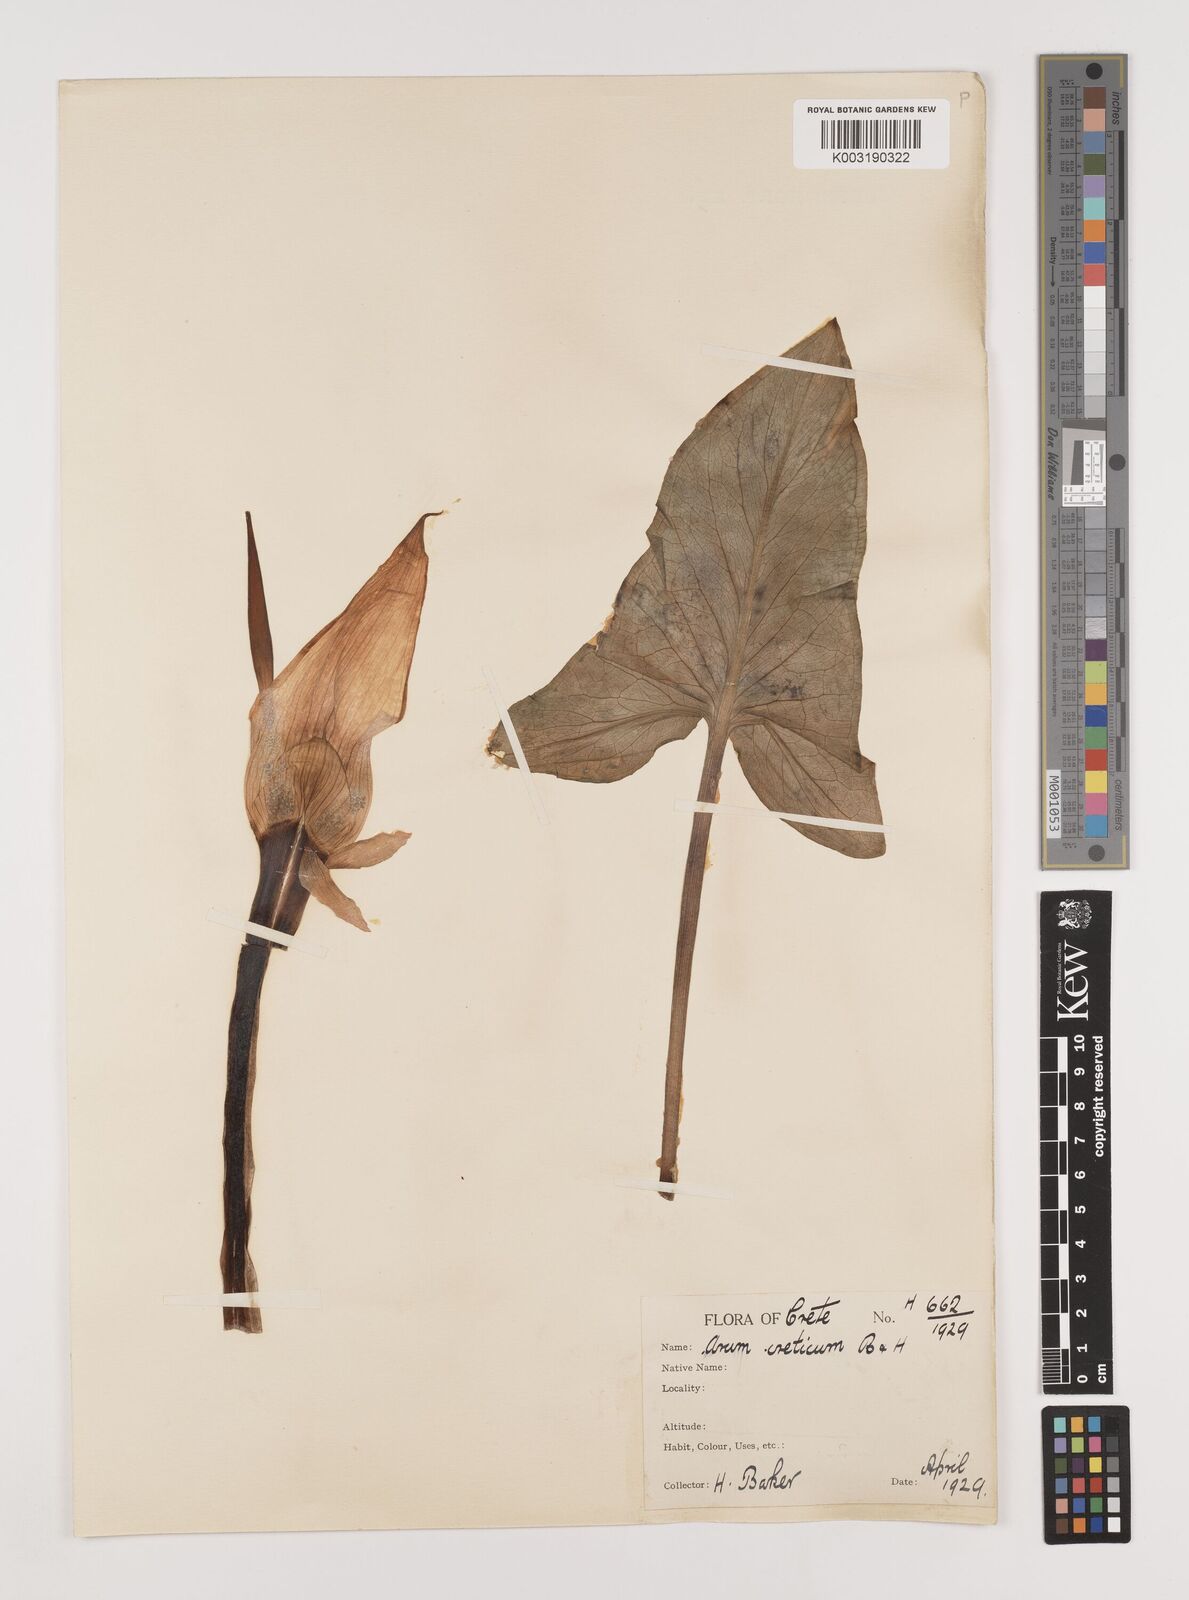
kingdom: Plantae
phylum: Tracheophyta
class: Liliopsida
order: Alismatales
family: Araceae
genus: Arum
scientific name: Arum creticum
